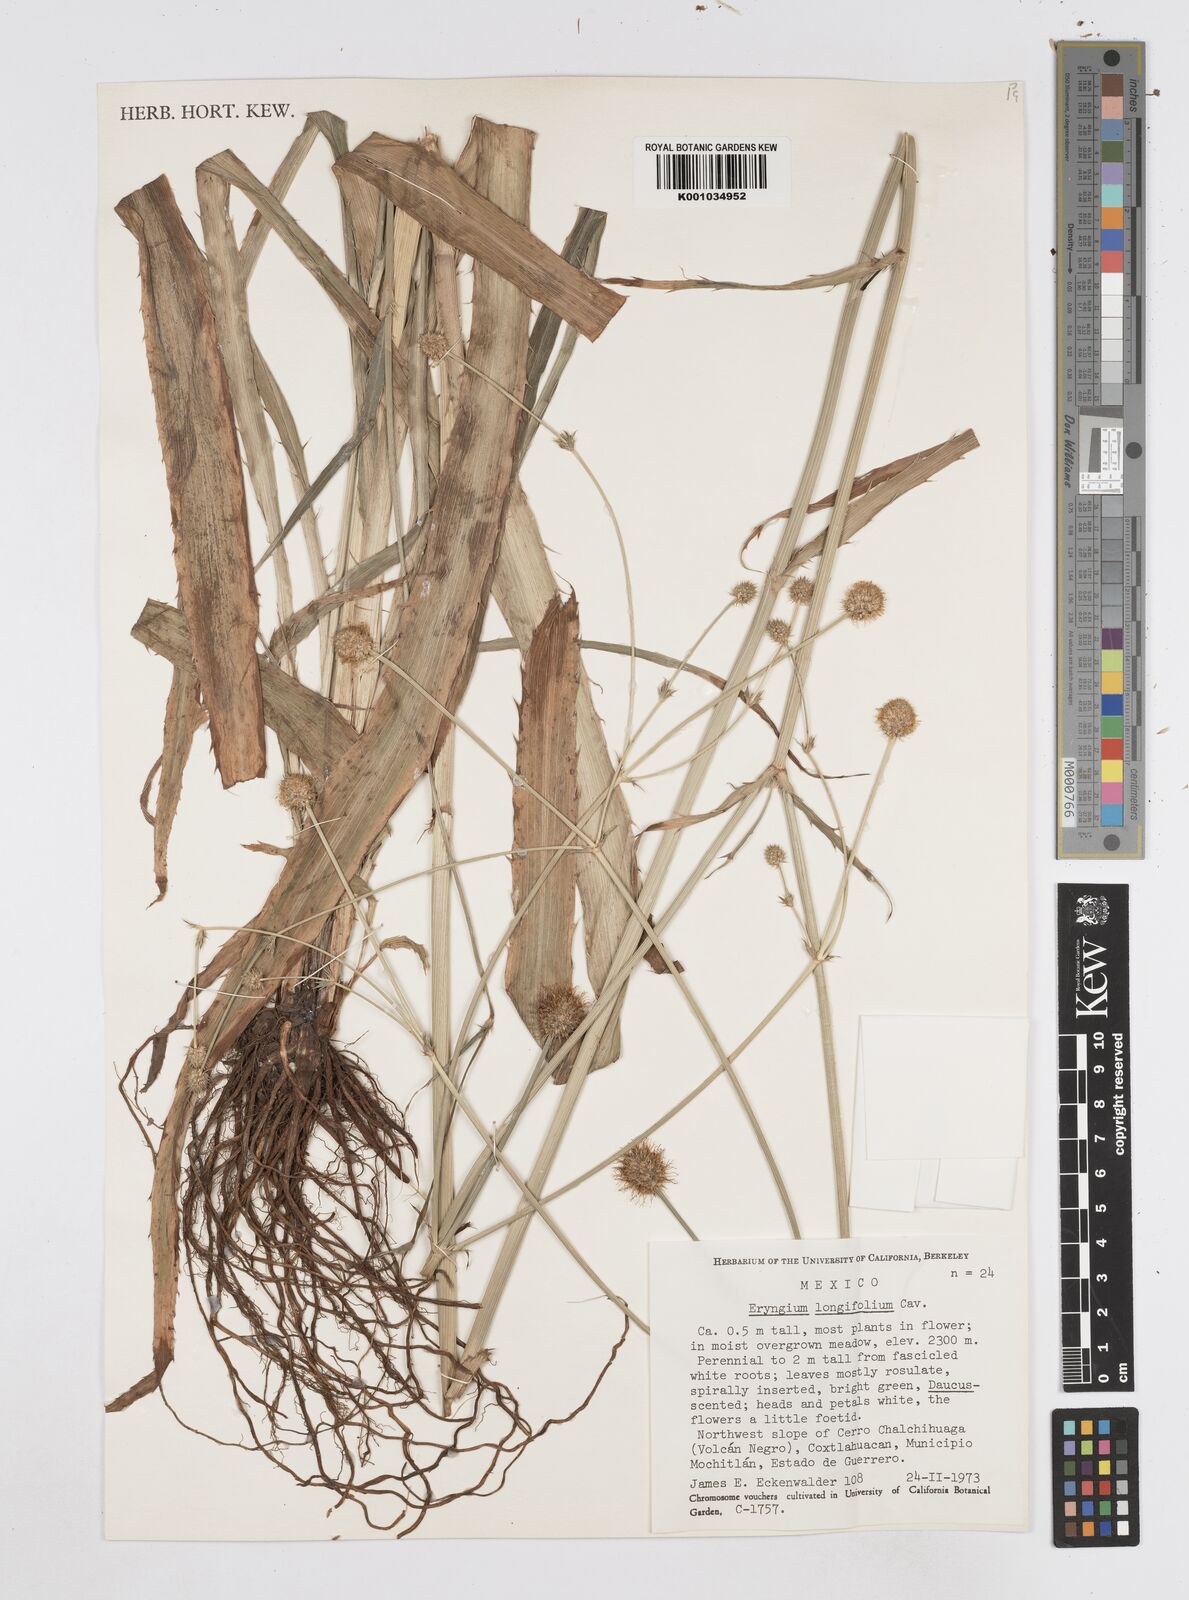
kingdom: Plantae
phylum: Tracheophyta
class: Magnoliopsida
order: Apiales
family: Apiaceae
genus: Eryngium
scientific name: Eryngium longifolium
